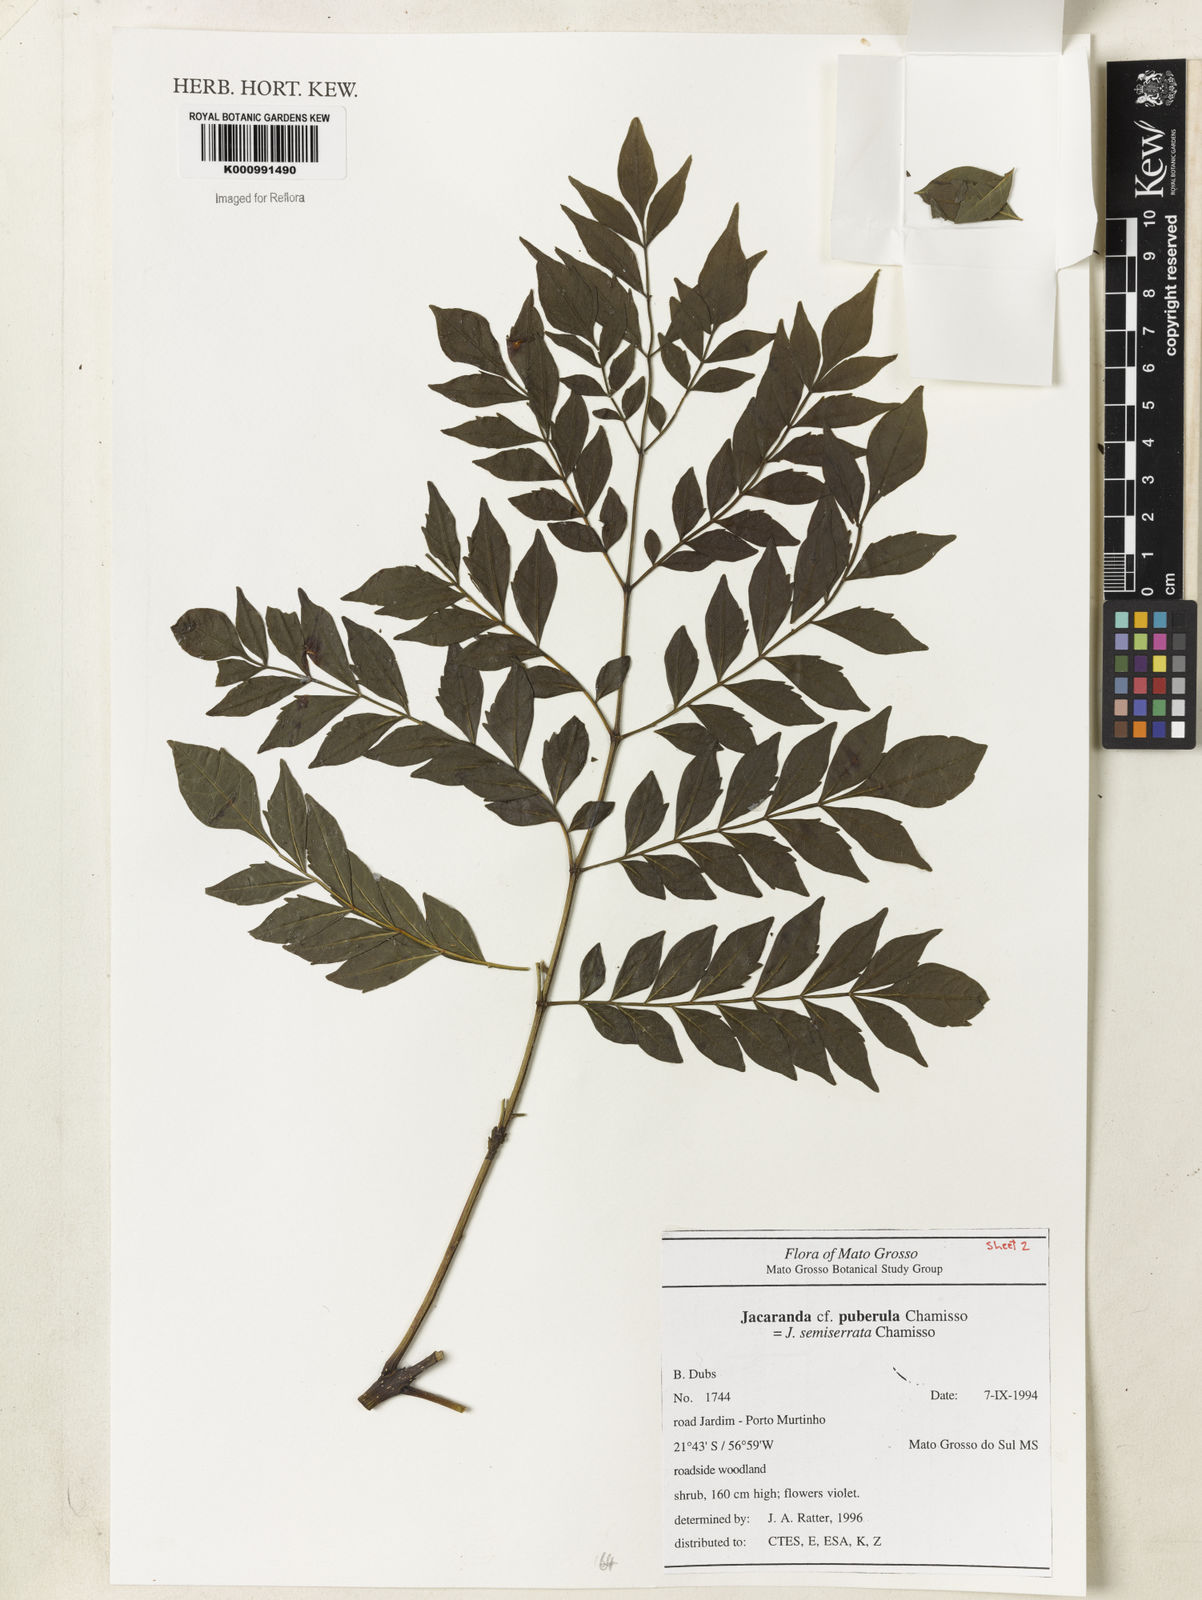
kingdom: Plantae
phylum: Tracheophyta
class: Magnoliopsida
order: Lamiales
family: Bignoniaceae
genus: Jacaranda
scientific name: Jacaranda puberula
